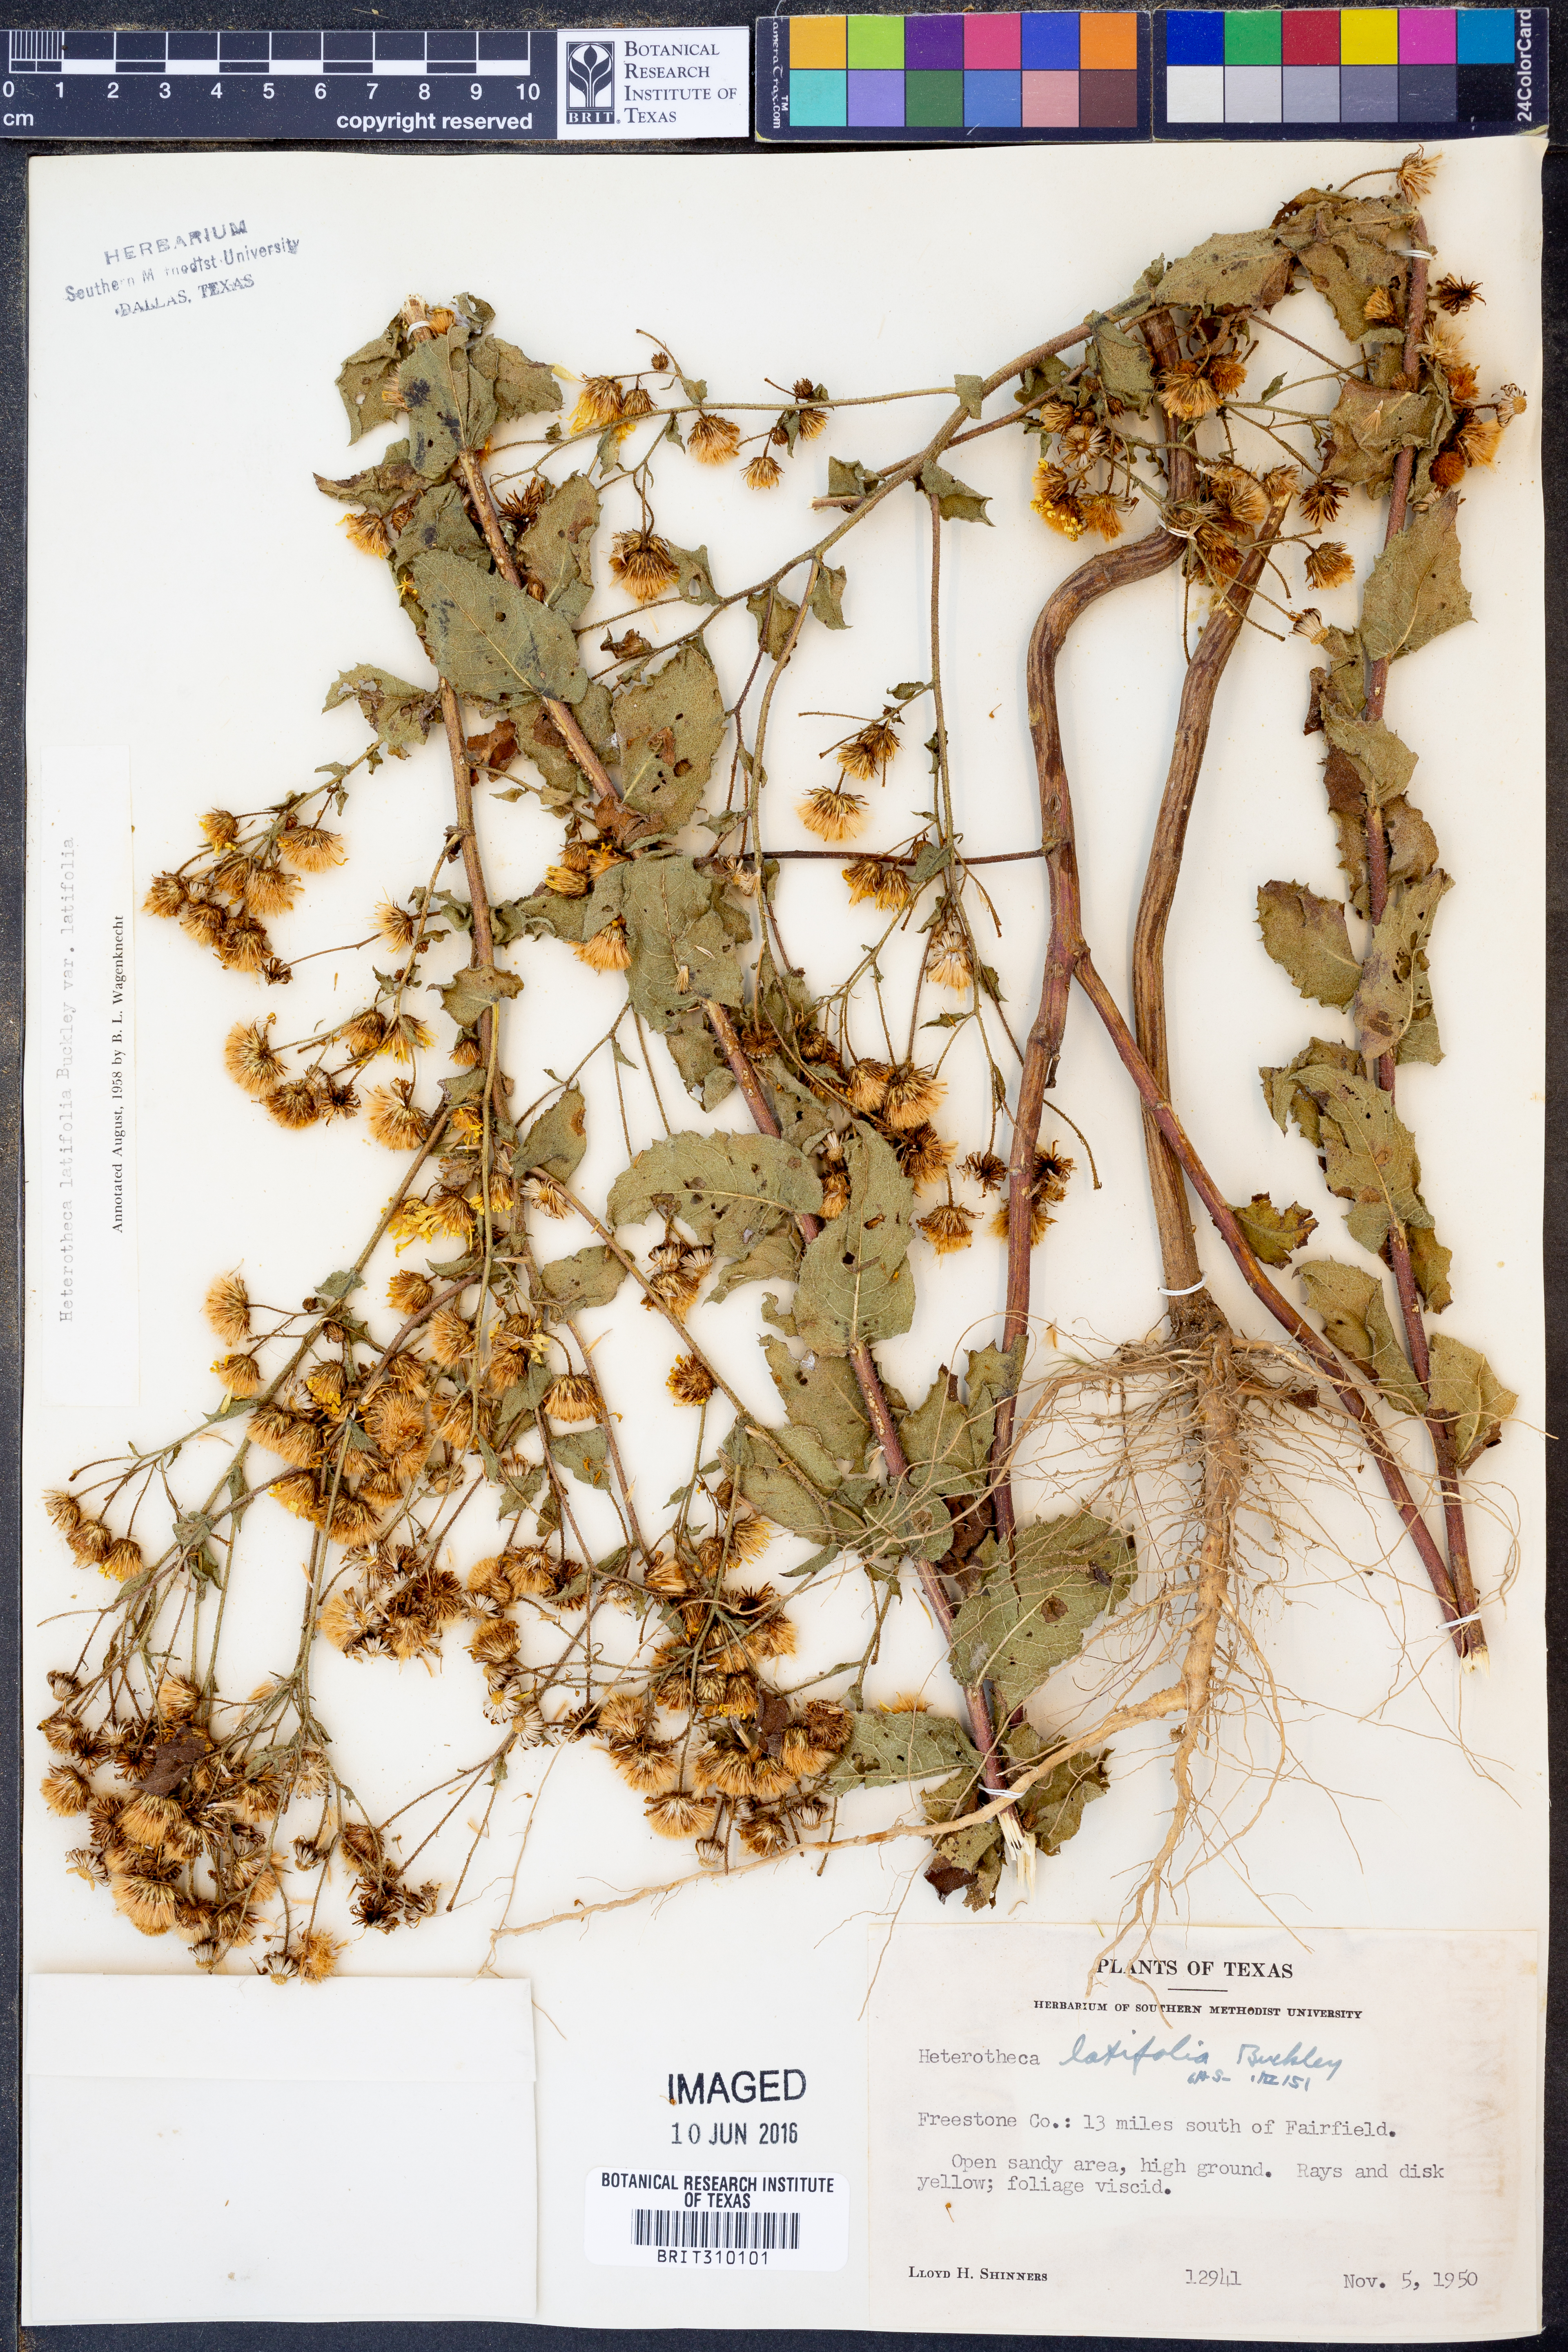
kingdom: Plantae
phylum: Tracheophyta
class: Magnoliopsida
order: Asterales
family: Asteraceae
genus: Heterotheca
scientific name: Heterotheca subaxillaris
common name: Camphorweed
